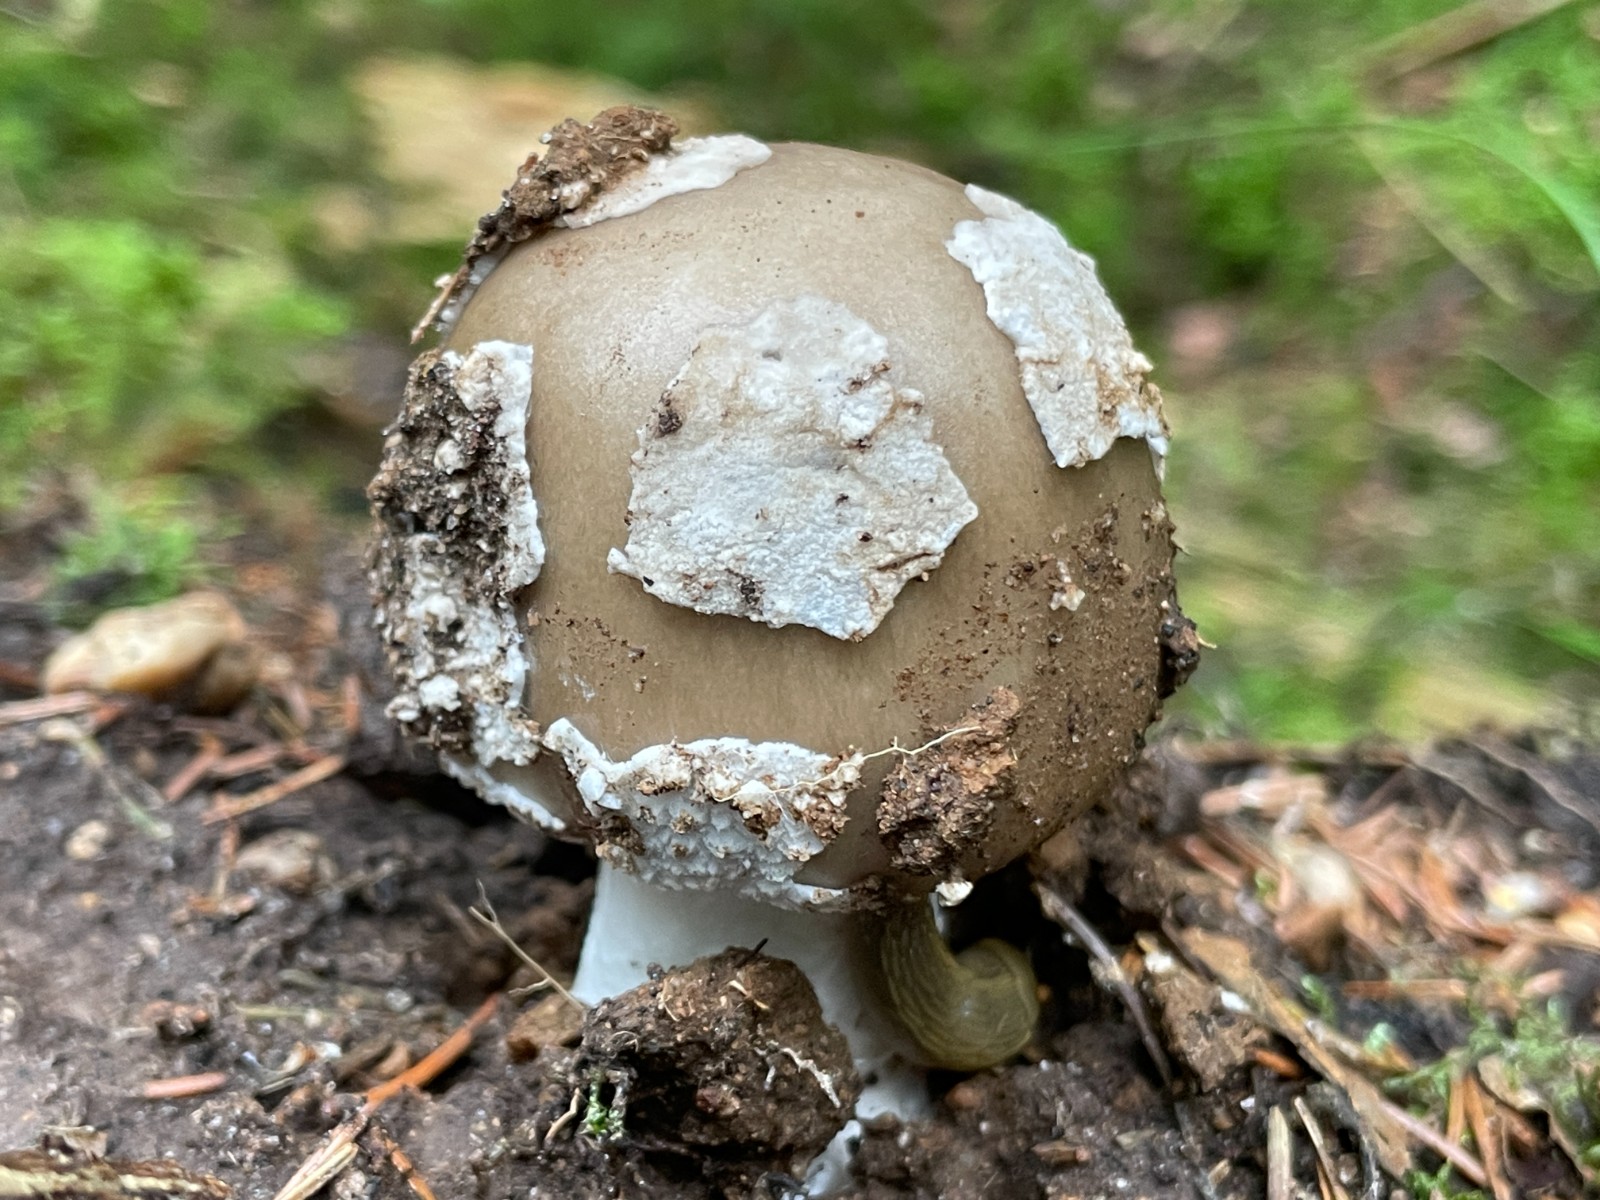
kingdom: Fungi
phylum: Basidiomycota
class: Agaricomycetes
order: Agaricales
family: Amanitaceae
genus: Amanita
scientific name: Amanita porphyria
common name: porfyr-fluesvamp
